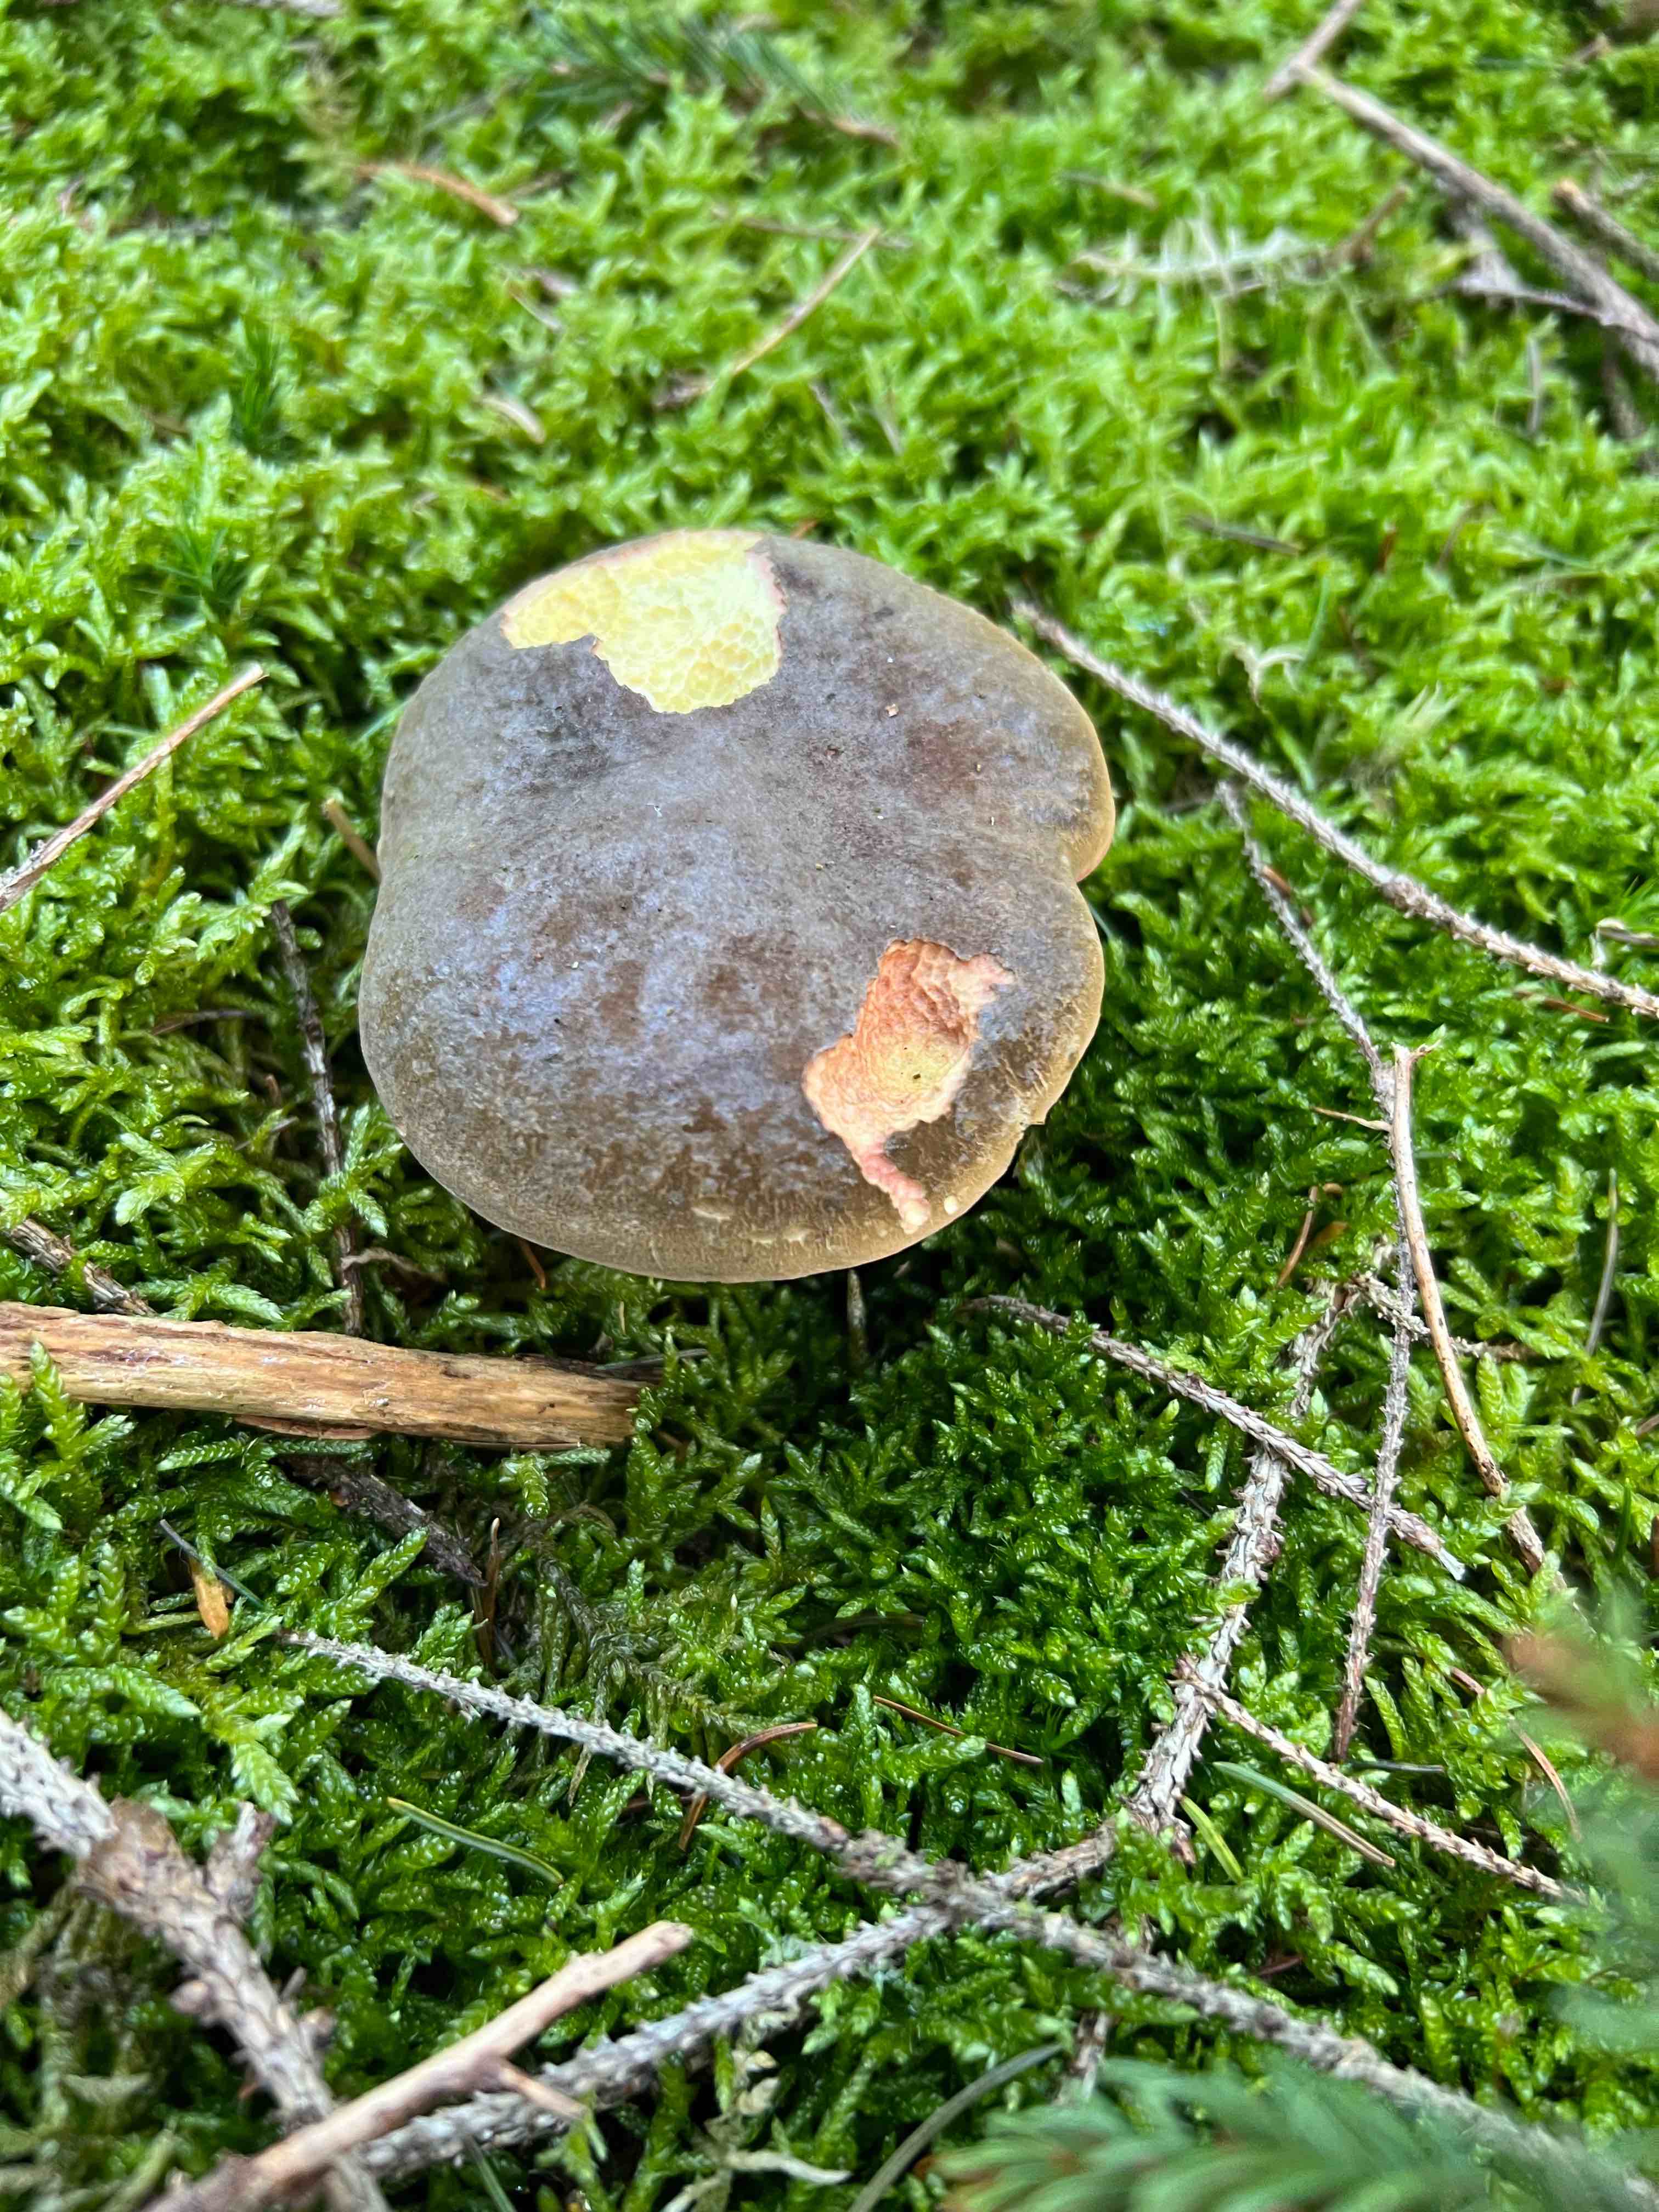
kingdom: Fungi
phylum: Basidiomycota
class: Agaricomycetes
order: Boletales
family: Boletaceae
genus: Xerocomellus
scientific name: Xerocomellus pruinatus
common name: dugget rørhat
